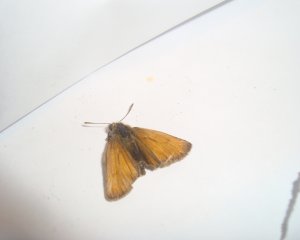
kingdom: Animalia
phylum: Arthropoda
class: Insecta
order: Lepidoptera
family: Hesperiidae
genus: Thymelicus
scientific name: Thymelicus lineola
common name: European Skipper
